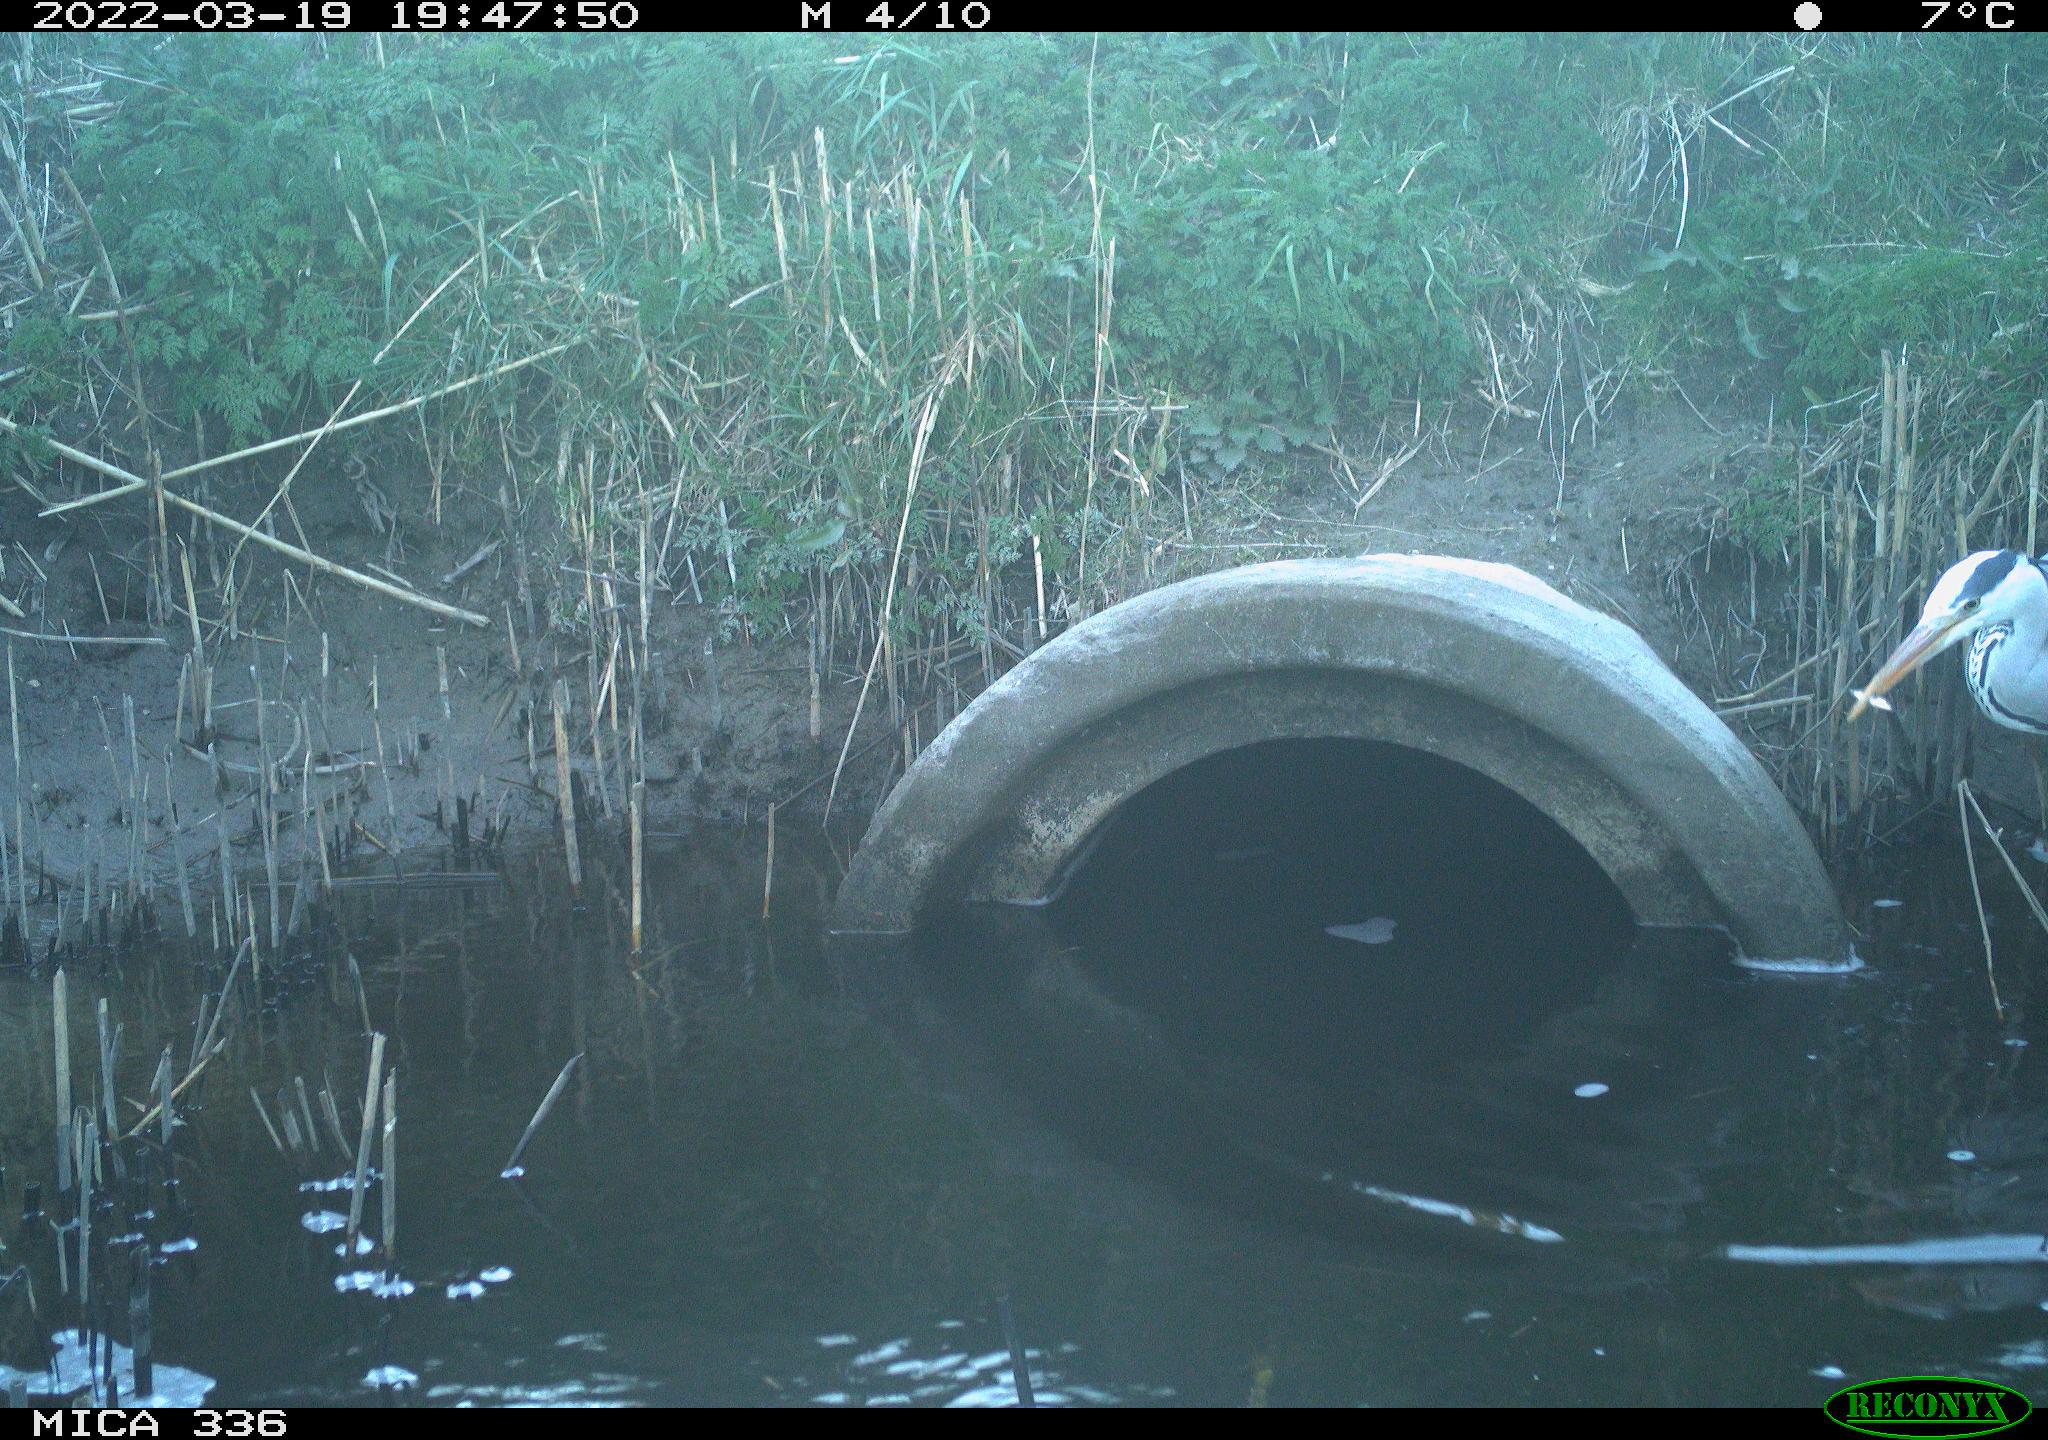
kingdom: Animalia
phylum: Chordata
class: Aves
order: Pelecaniformes
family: Ardeidae
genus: Ardea
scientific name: Ardea cinerea
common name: Grey heron
